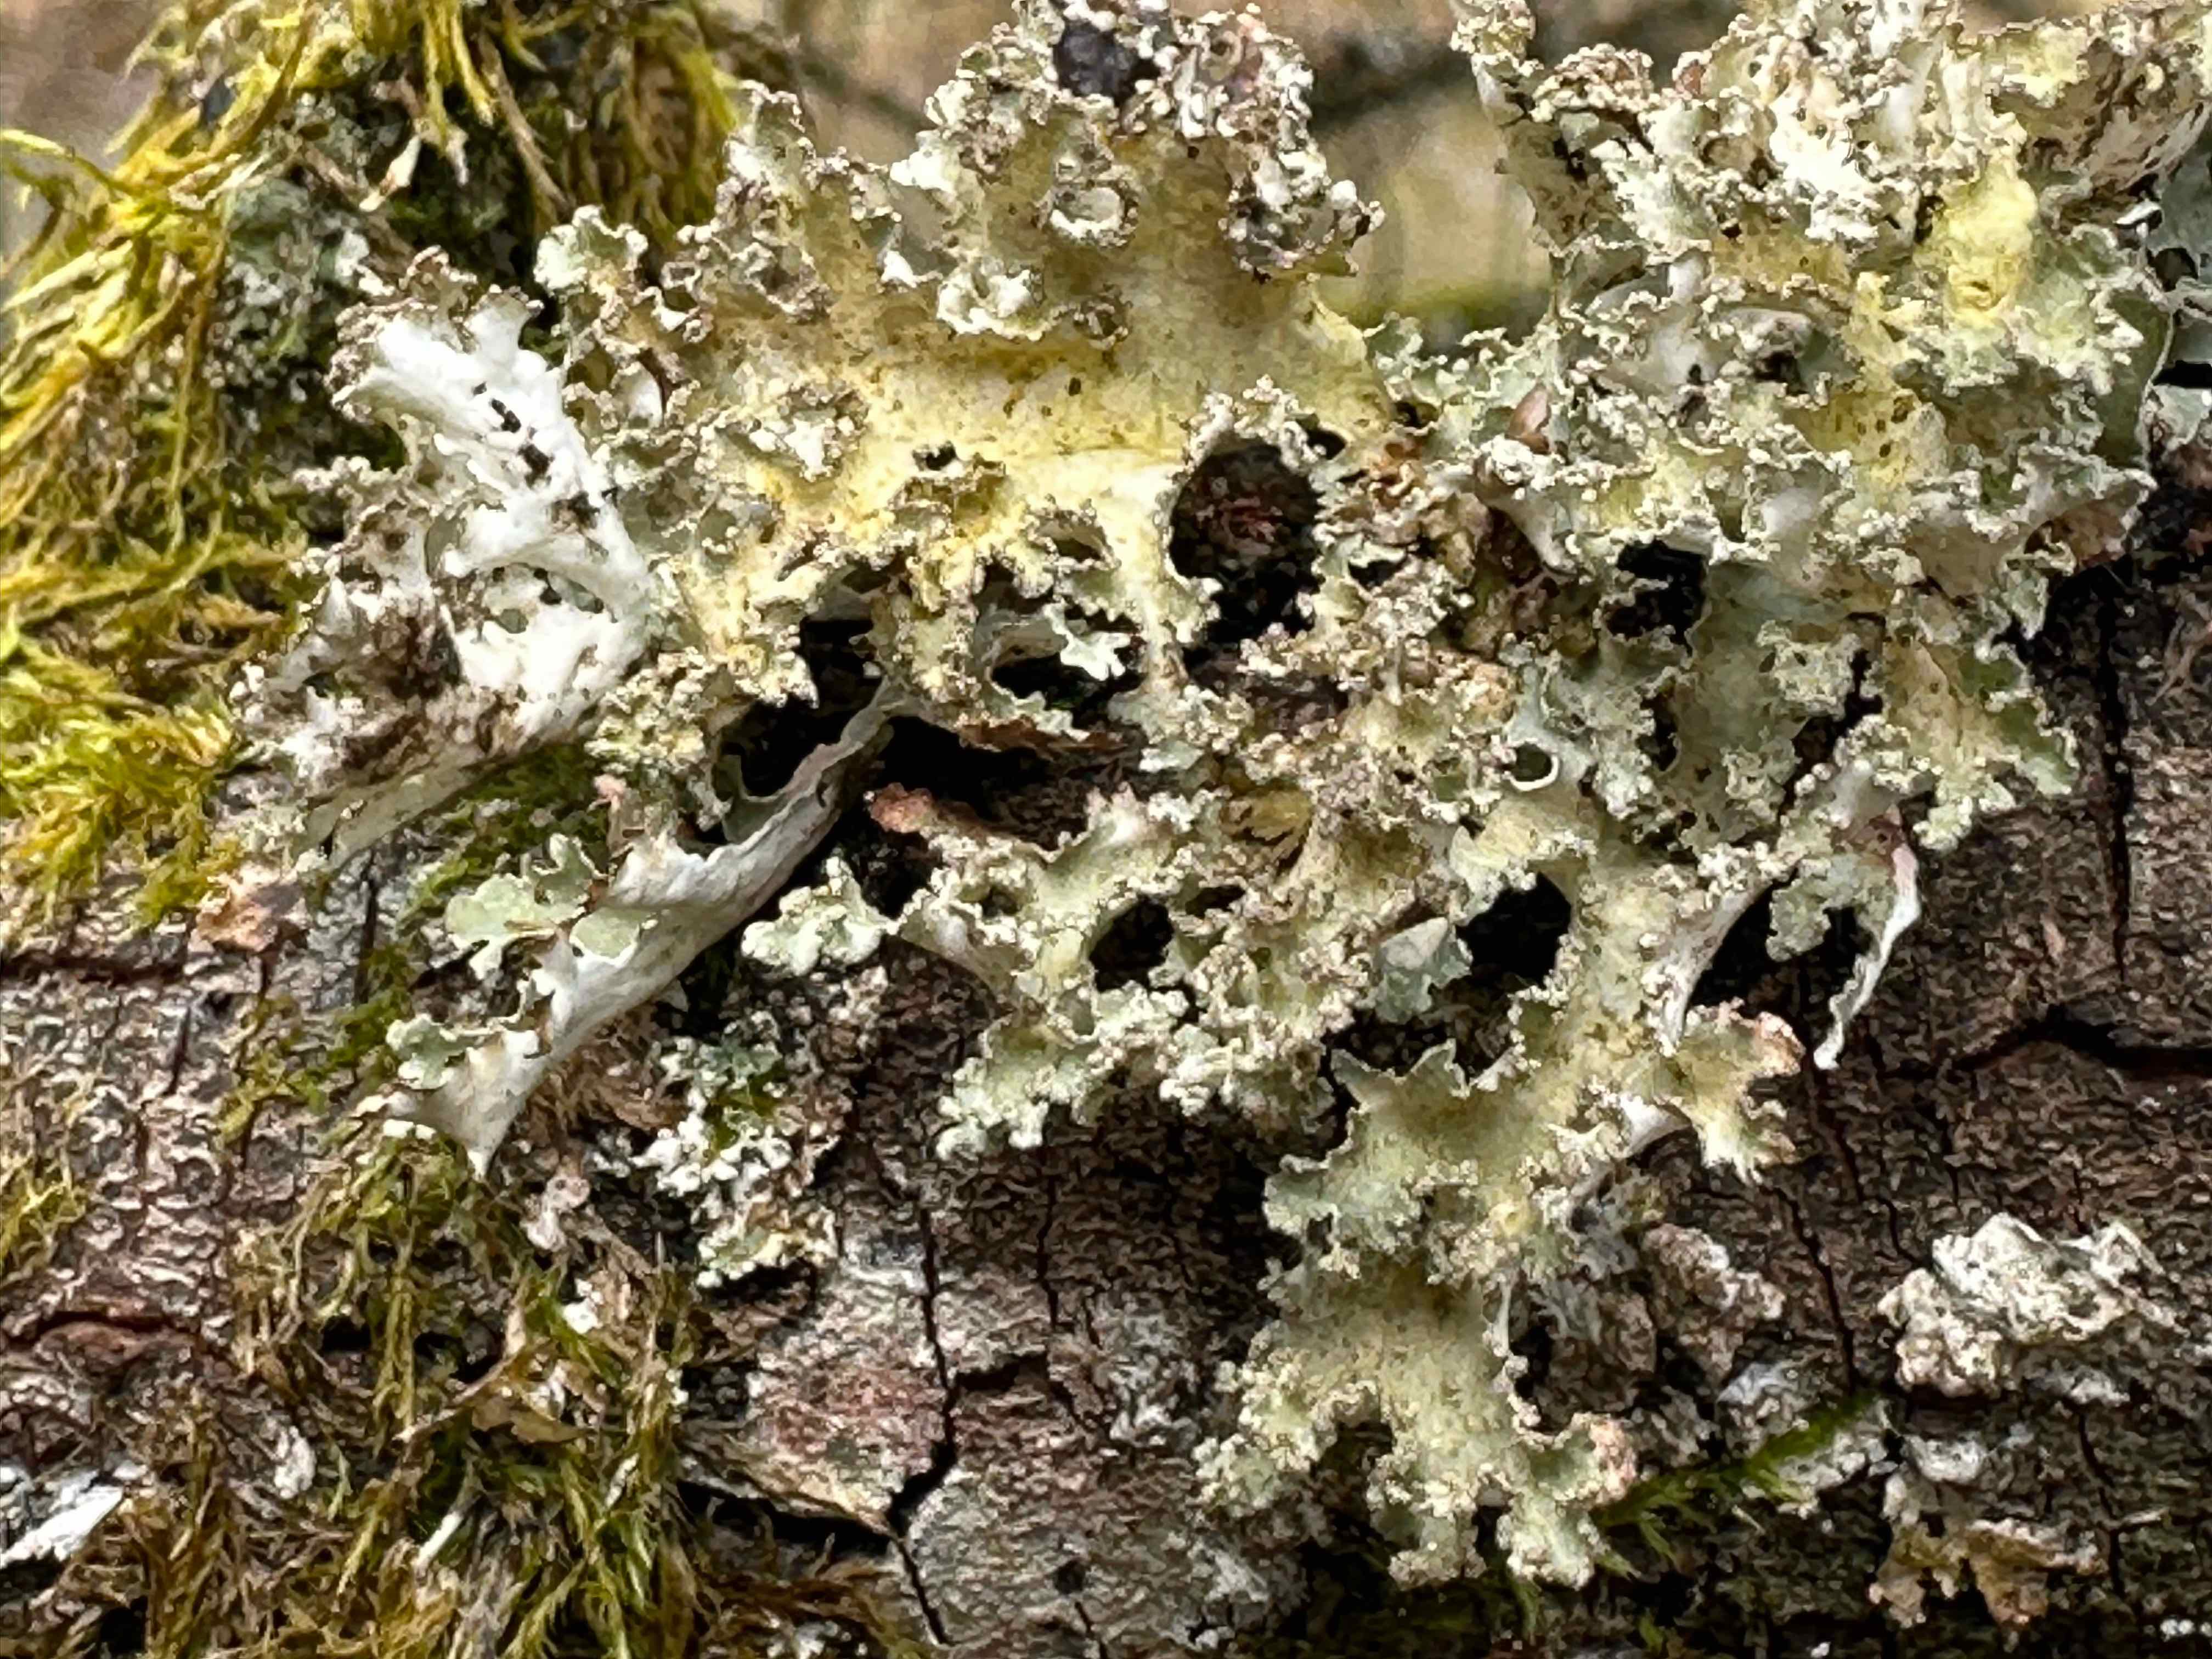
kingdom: Fungi
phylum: Ascomycota
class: Lecanoromycetes
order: Lecanorales
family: Parmeliaceae
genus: Nephromopsis
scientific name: Nephromopsis chlorophylla
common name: olivenbrun kruslav
